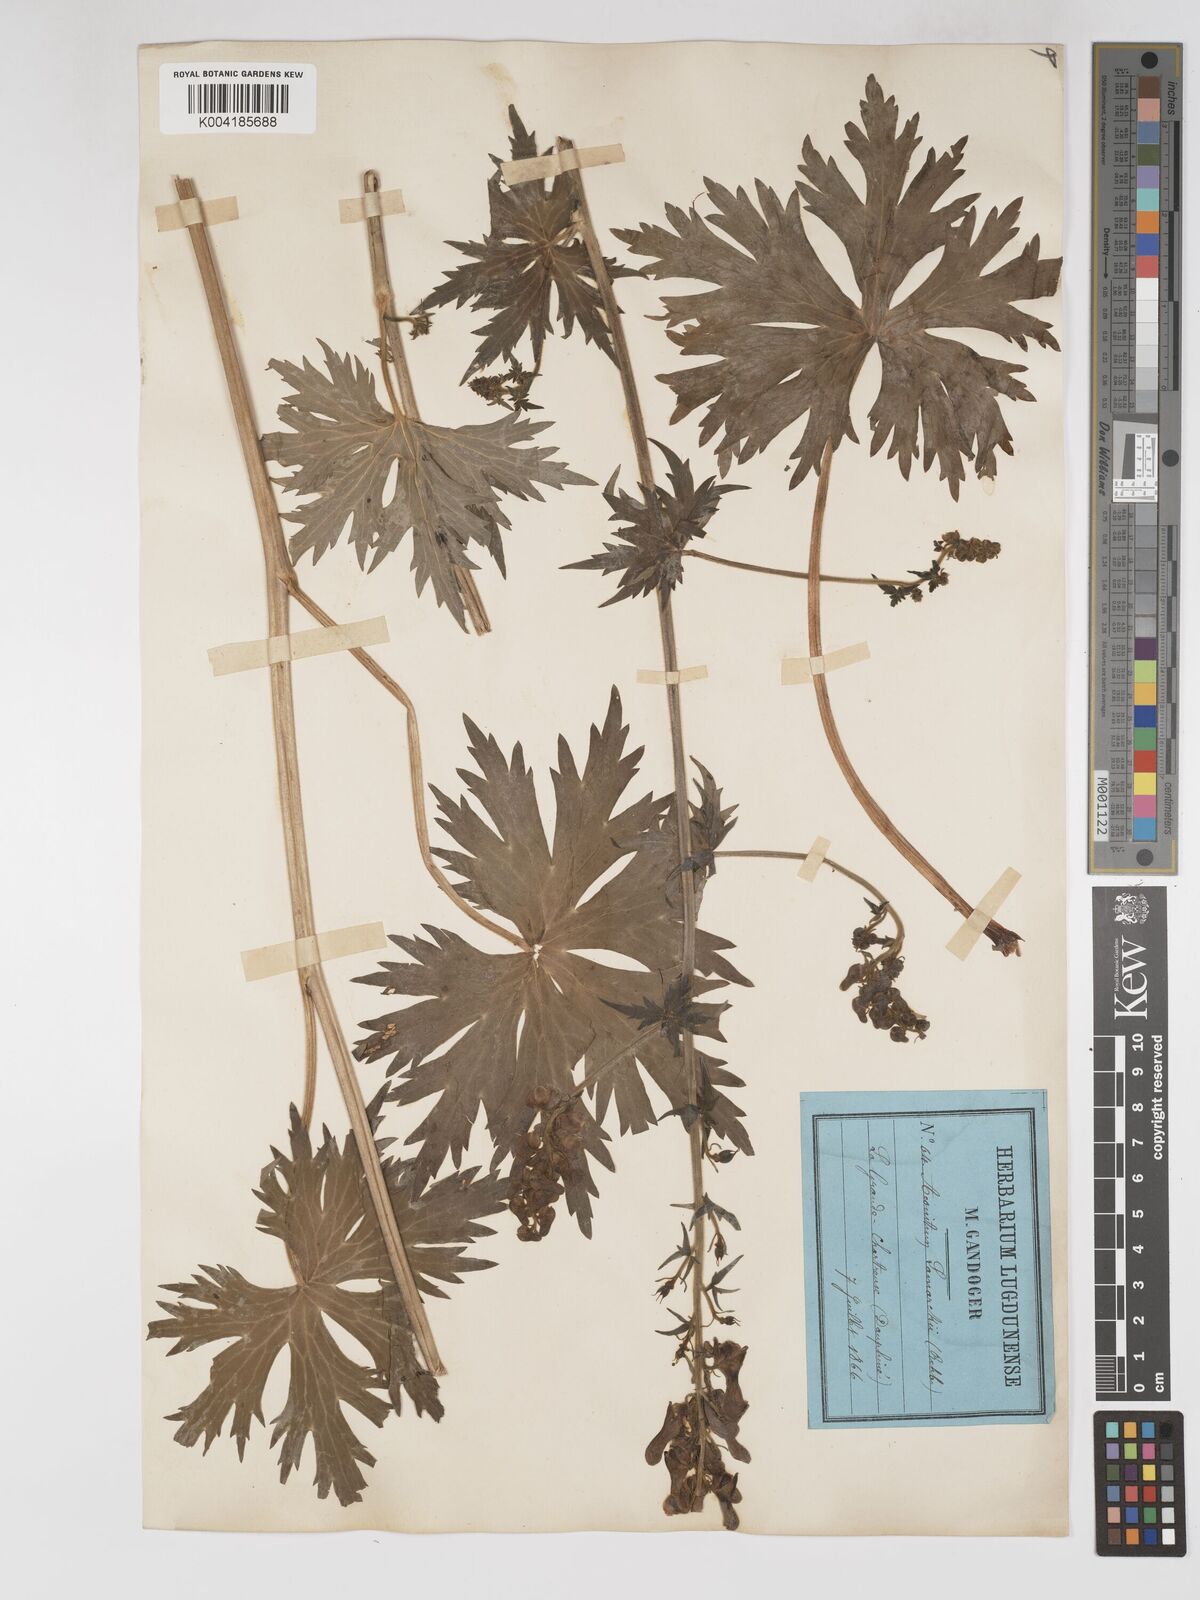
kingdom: Plantae
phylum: Tracheophyta
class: Magnoliopsida
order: Ranunculales
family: Ranunculaceae
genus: Aconitum
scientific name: Aconitum lycoctonum
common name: Wolf's-bane
